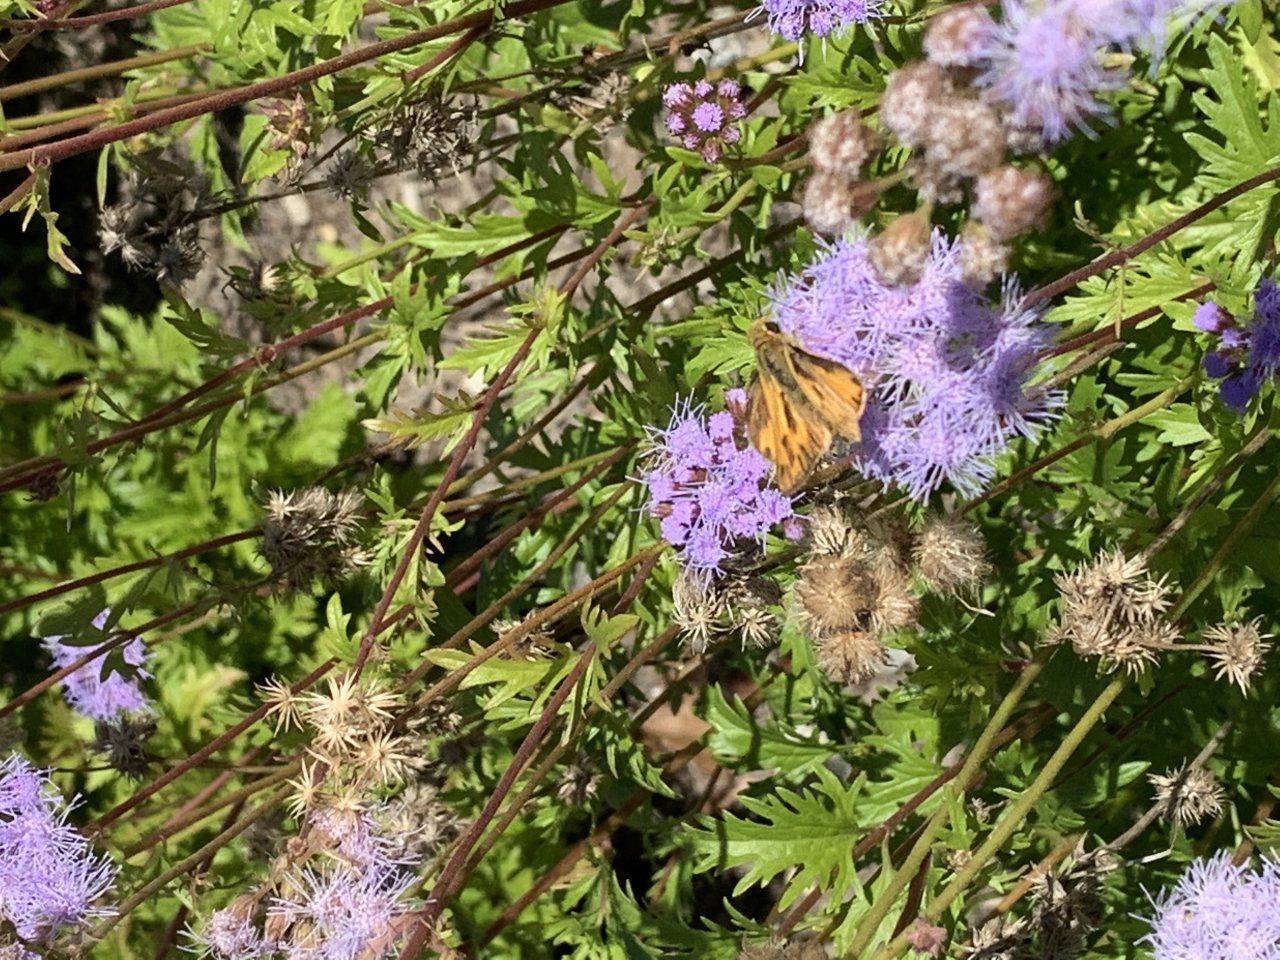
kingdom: Animalia
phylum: Arthropoda
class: Insecta
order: Lepidoptera
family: Hesperiidae
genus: Lon
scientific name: Lon zabulon
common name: Zabulon Skipper
